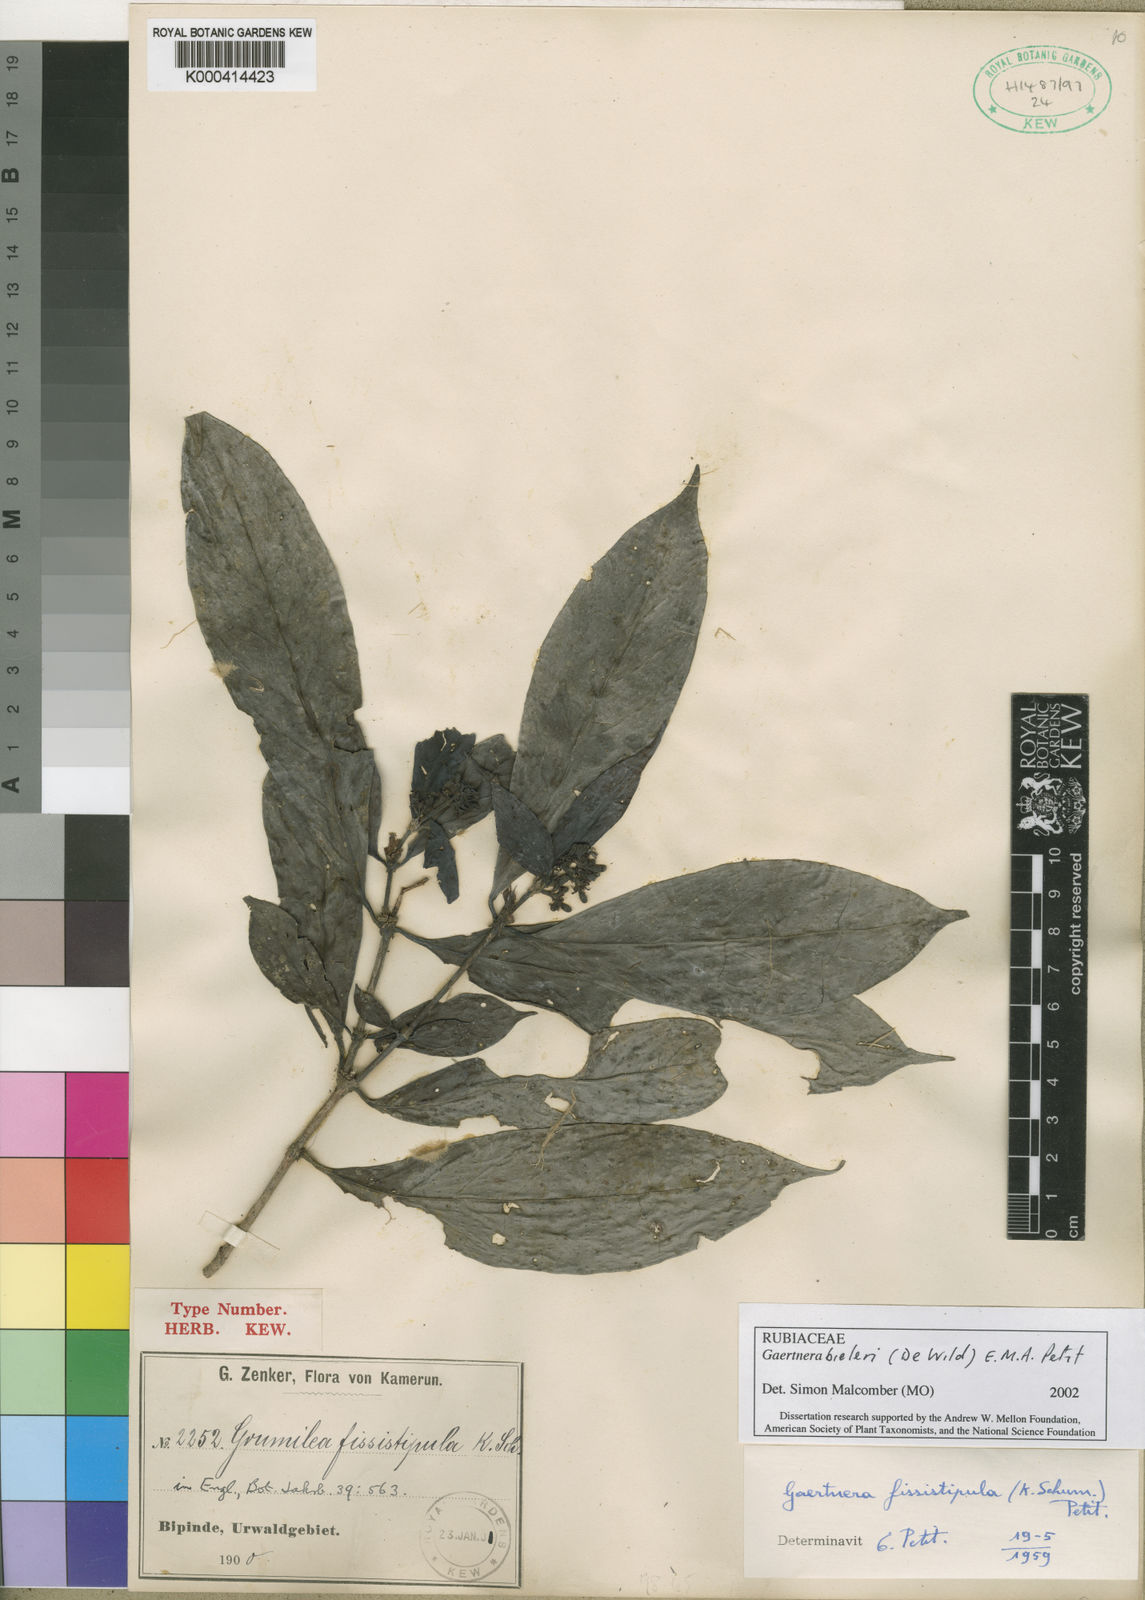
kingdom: Plantae
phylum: Tracheophyta
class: Magnoliopsida
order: Gentianales
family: Rubiaceae
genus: Gaertnera
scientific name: Gaertnera bieleri
